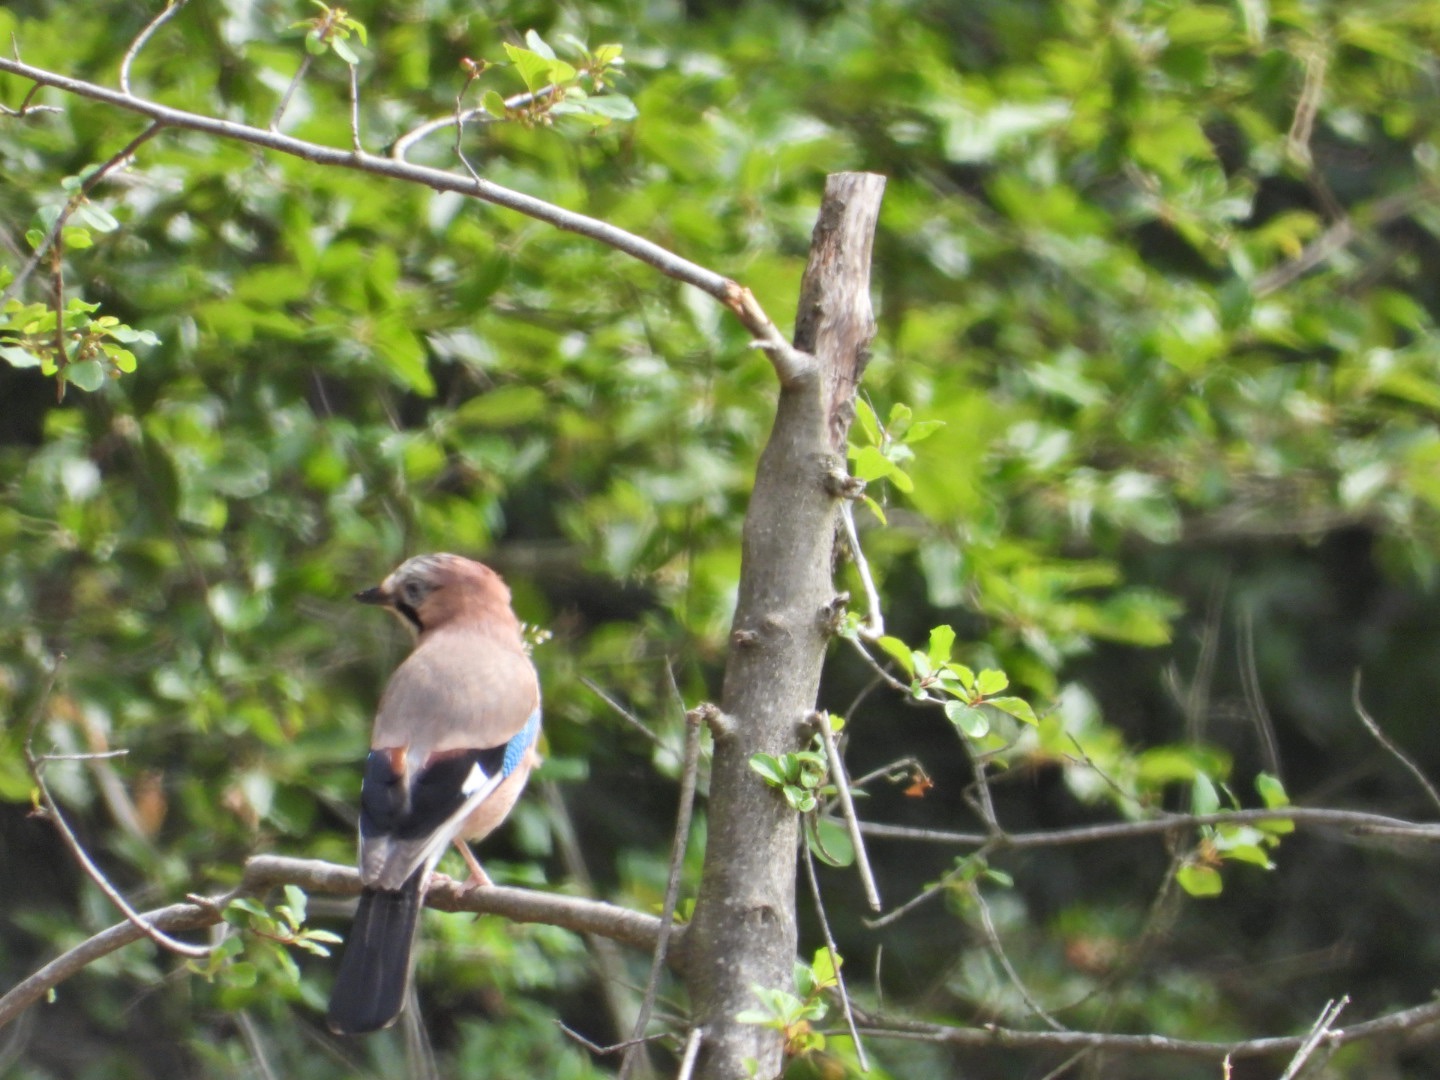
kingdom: Animalia
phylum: Chordata
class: Aves
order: Passeriformes
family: Corvidae
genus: Garrulus
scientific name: Garrulus glandarius
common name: Skovskade
